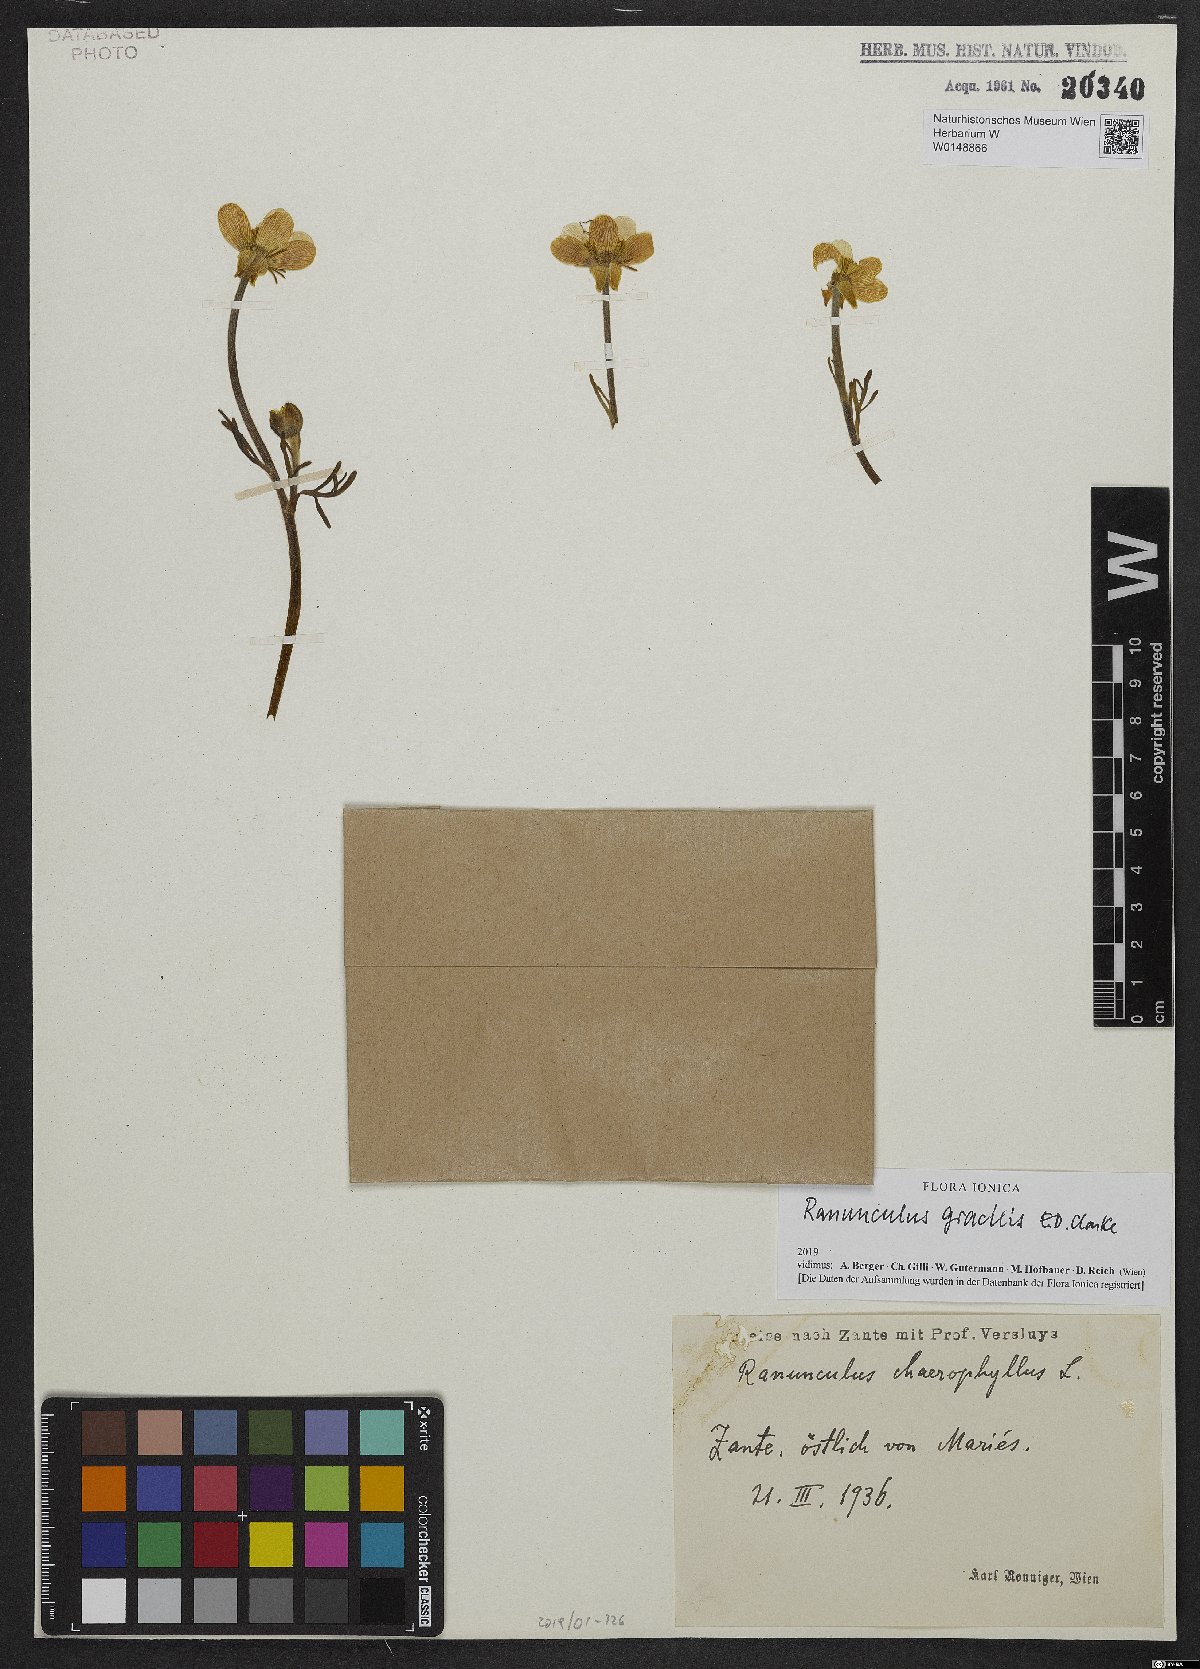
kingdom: Plantae
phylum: Tracheophyta
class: Magnoliopsida
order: Ranunculales
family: Ranunculaceae
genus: Ranunculus
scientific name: Ranunculus gracilis
